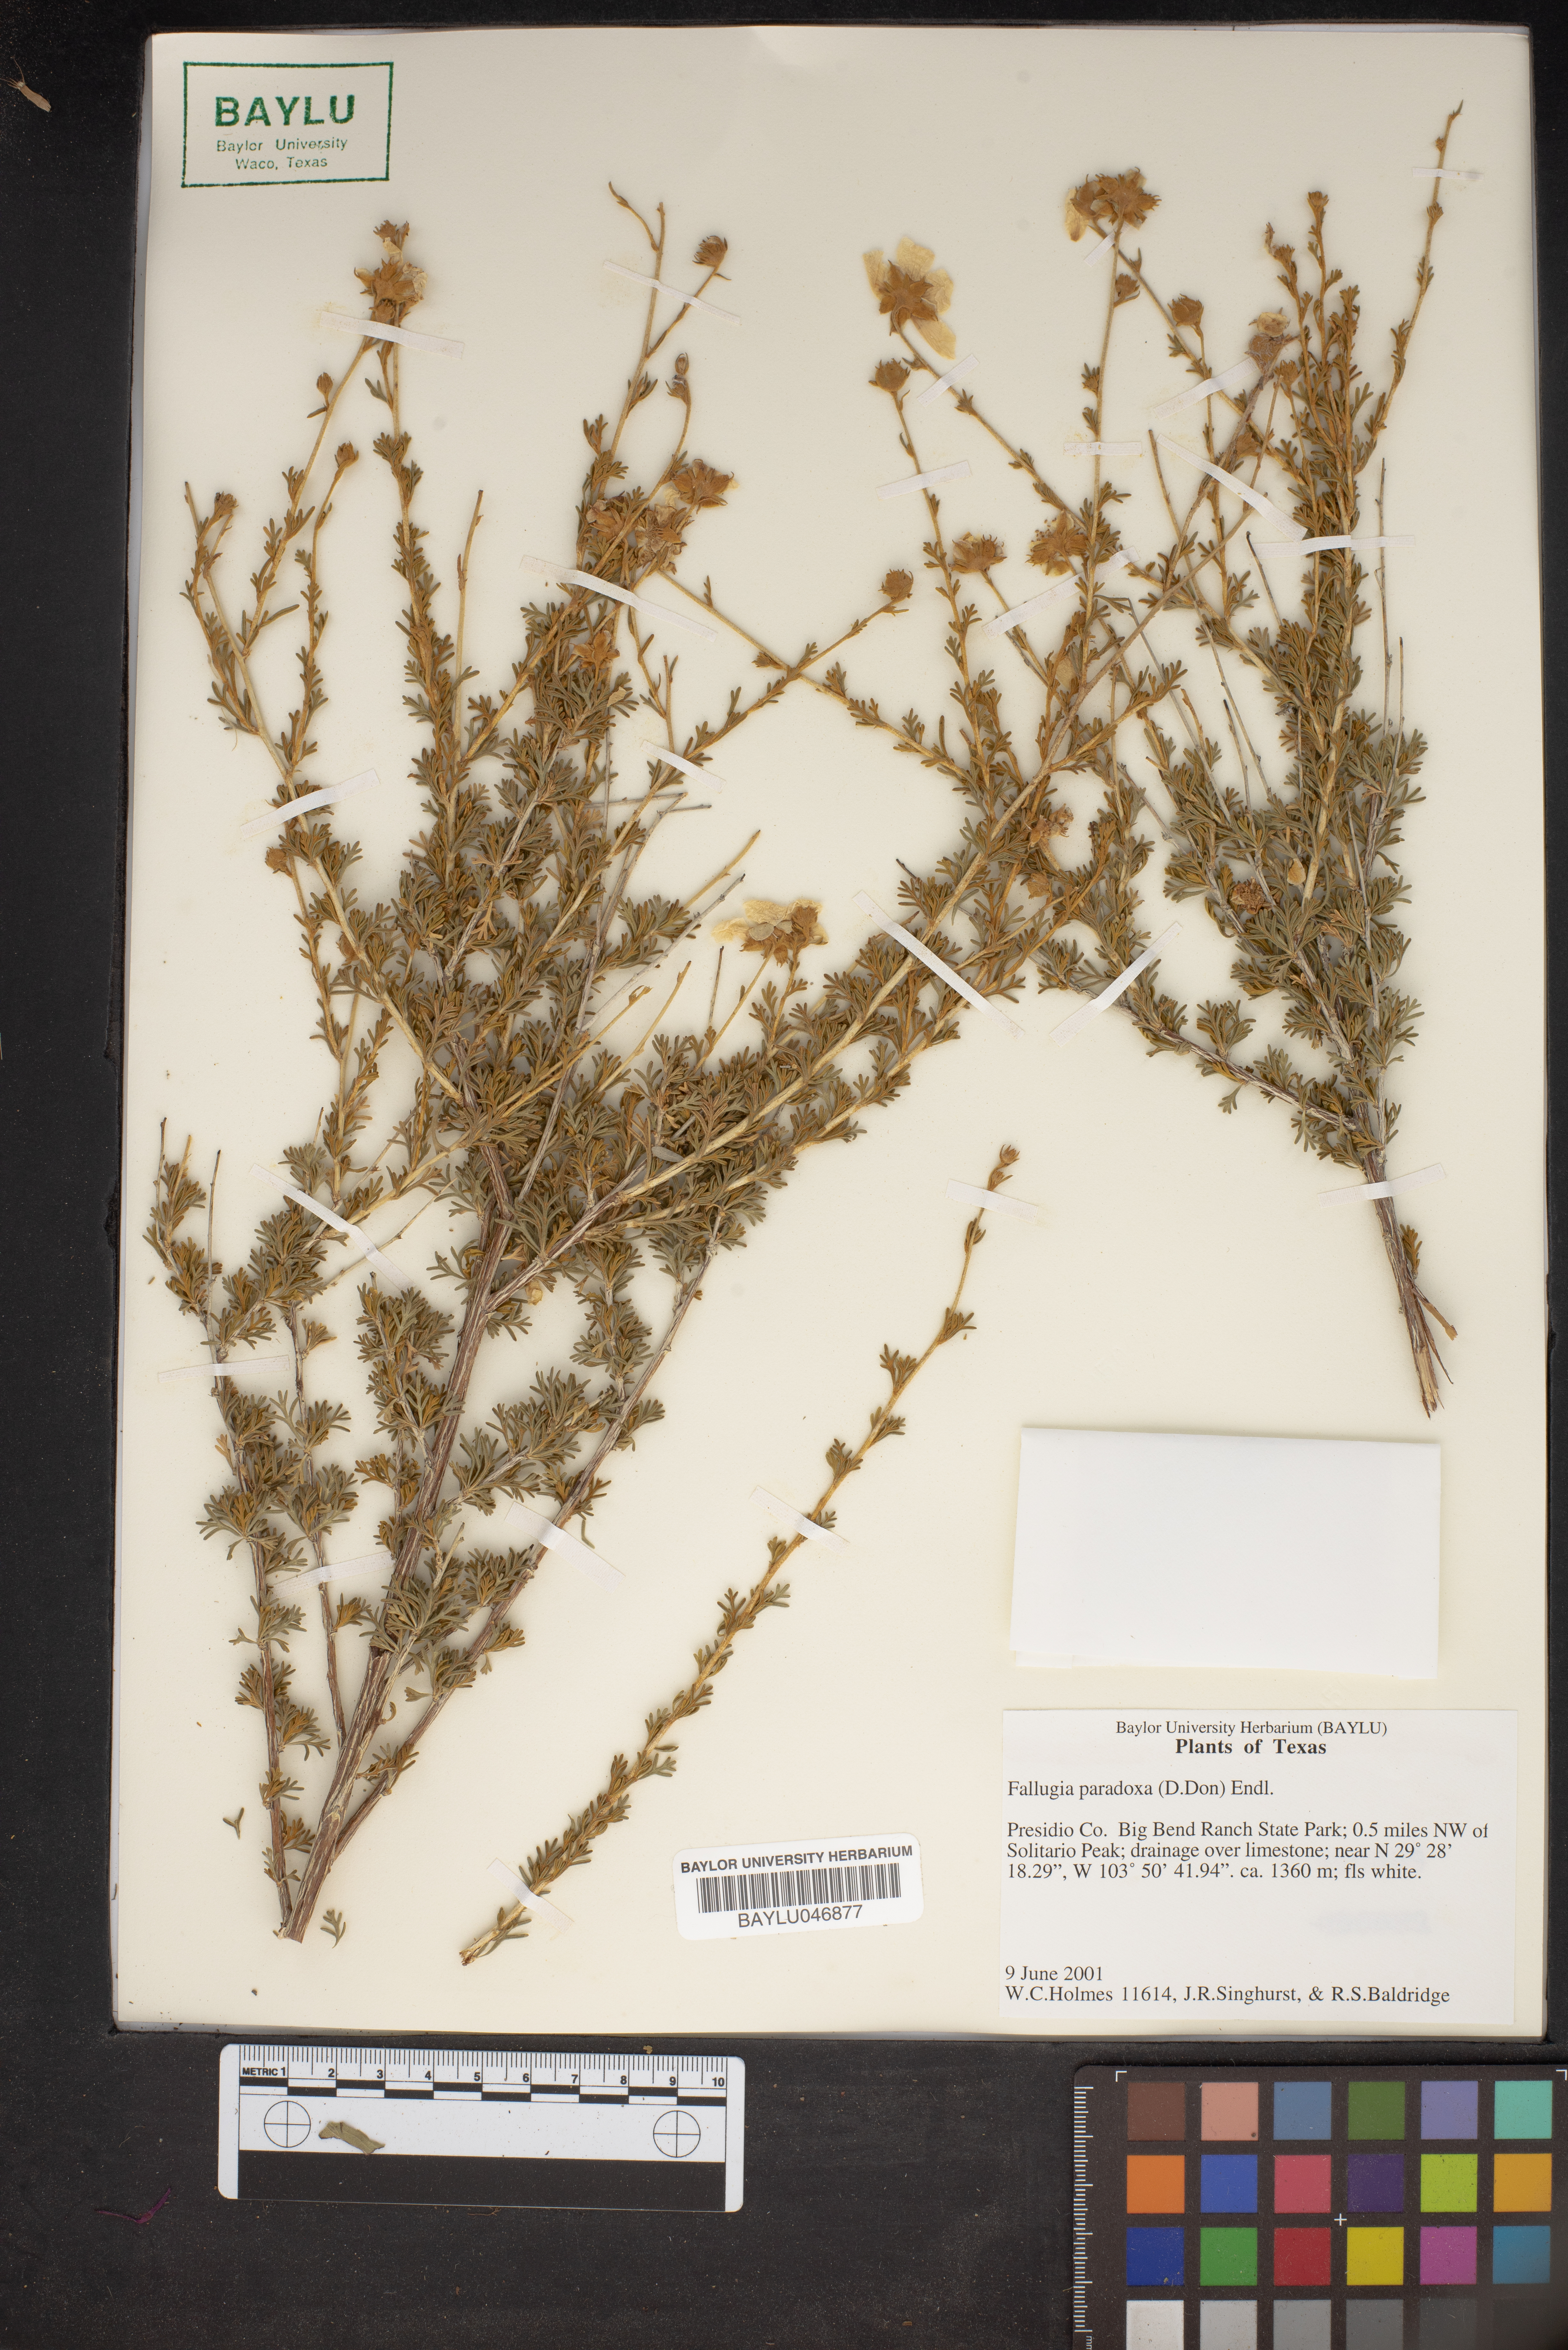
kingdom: Plantae
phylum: Tracheophyta
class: Magnoliopsida
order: Rosales
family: Rosaceae
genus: Fallugia
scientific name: Fallugia paradoxa
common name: Apache-plume
